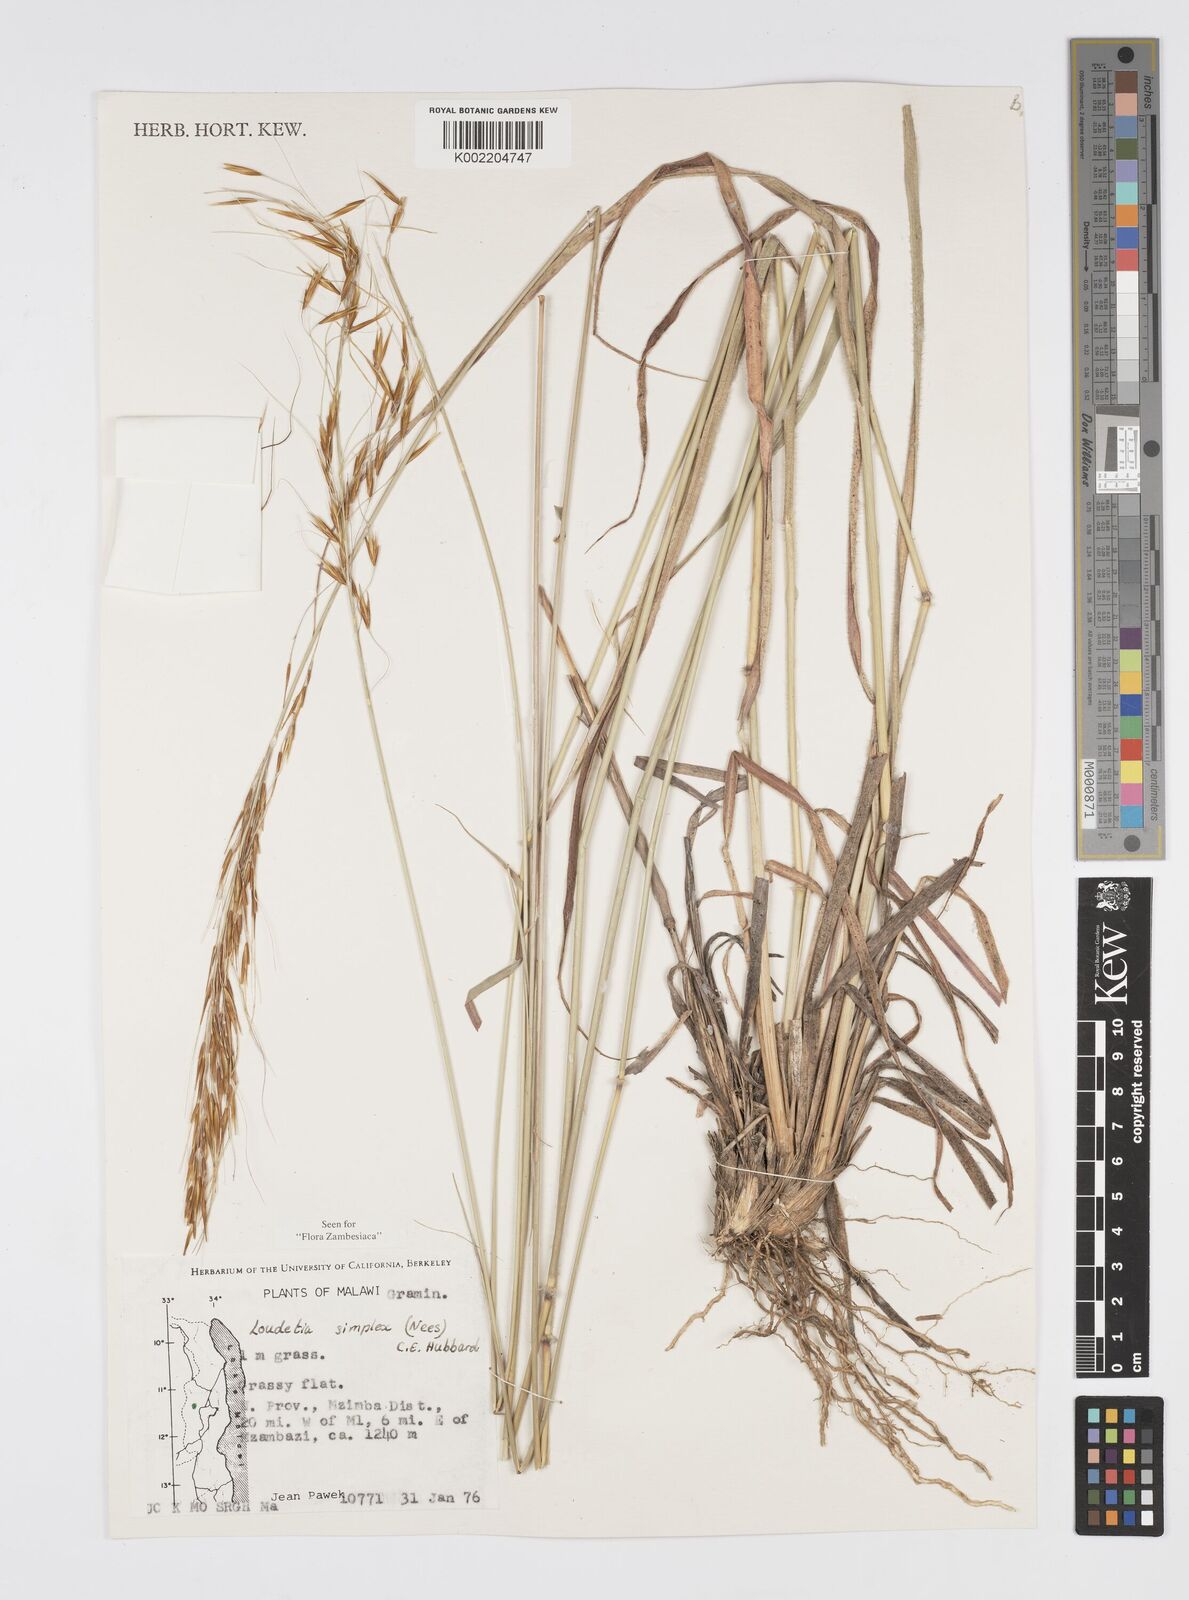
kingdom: Plantae
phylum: Tracheophyta
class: Liliopsida
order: Poales
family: Poaceae
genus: Loudetia
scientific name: Loudetia simplex
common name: Common russet grass
